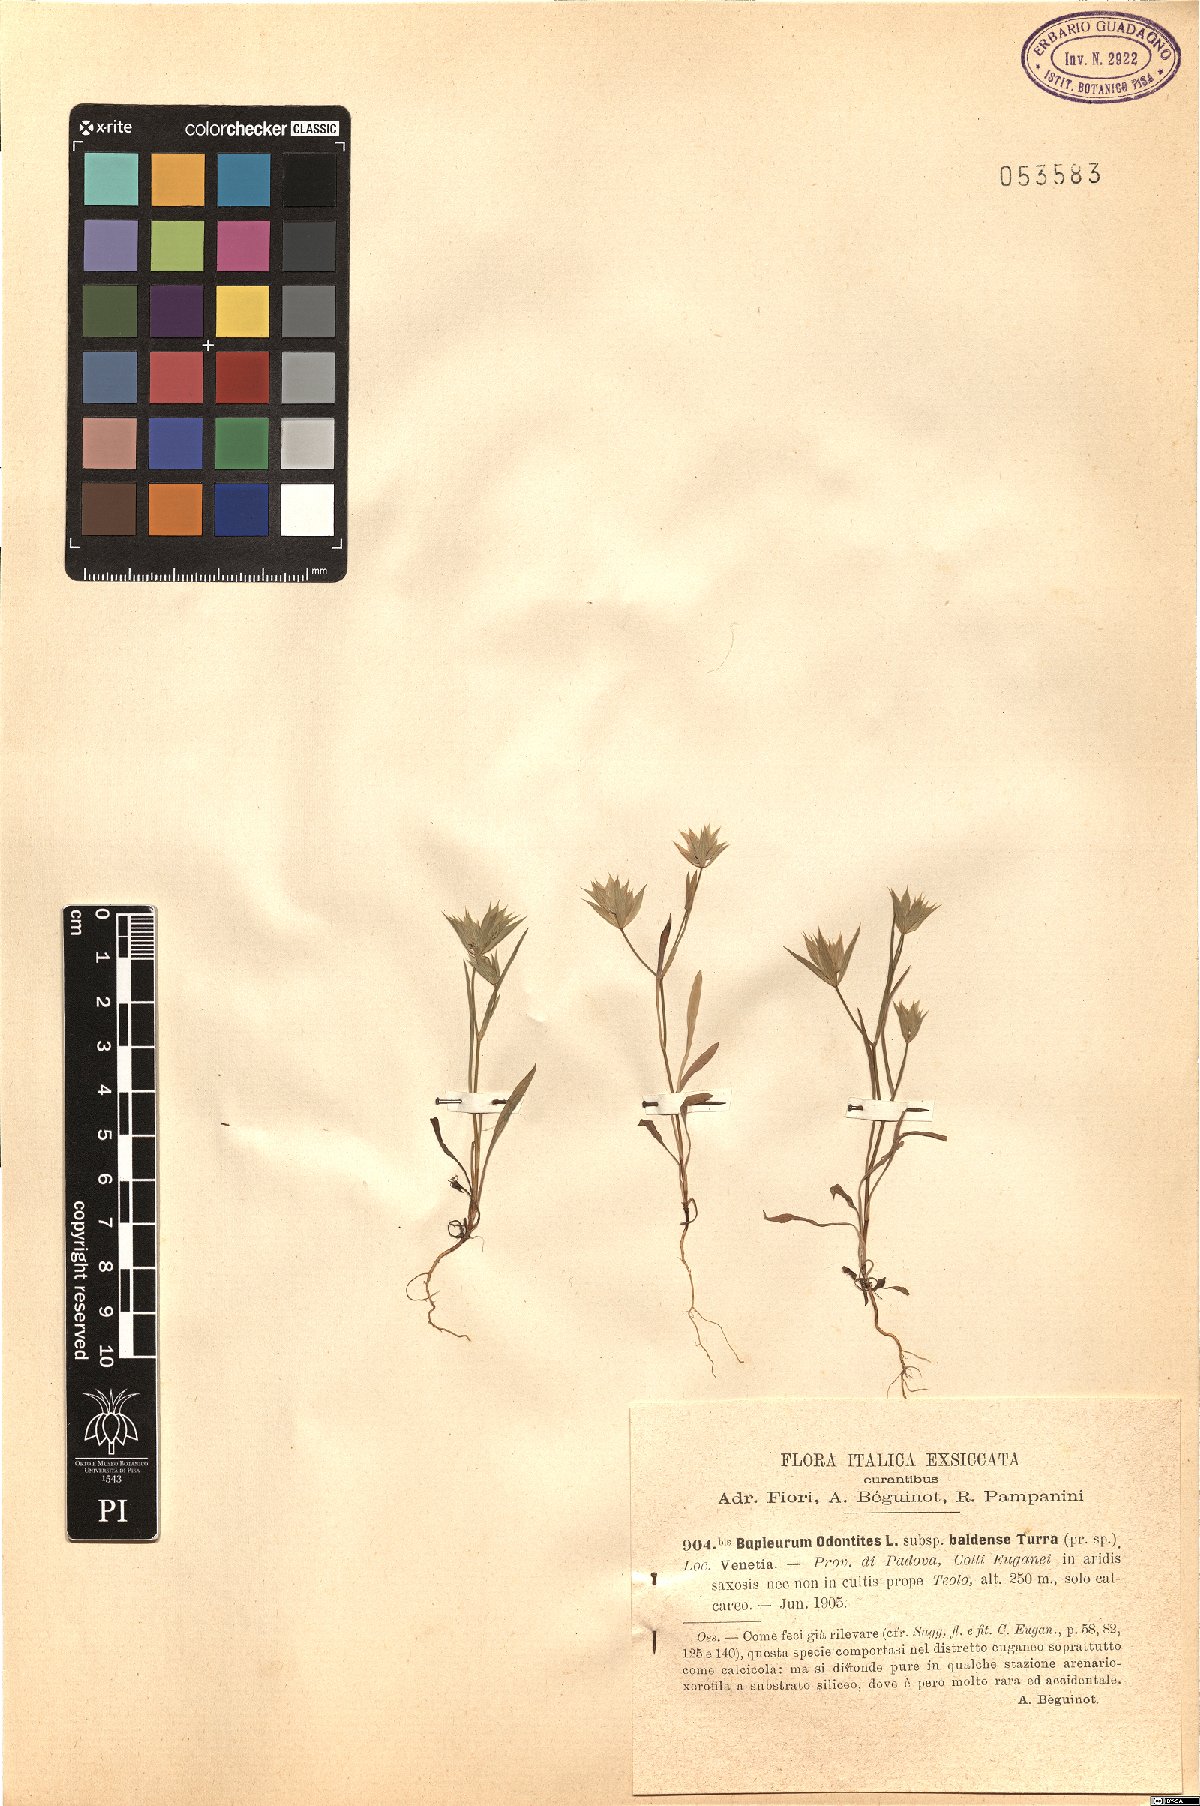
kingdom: Plantae
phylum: Tracheophyta
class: Magnoliopsida
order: Apiales
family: Apiaceae
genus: Bupleurum
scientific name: Bupleurum baldense
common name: Small hare's-ear
